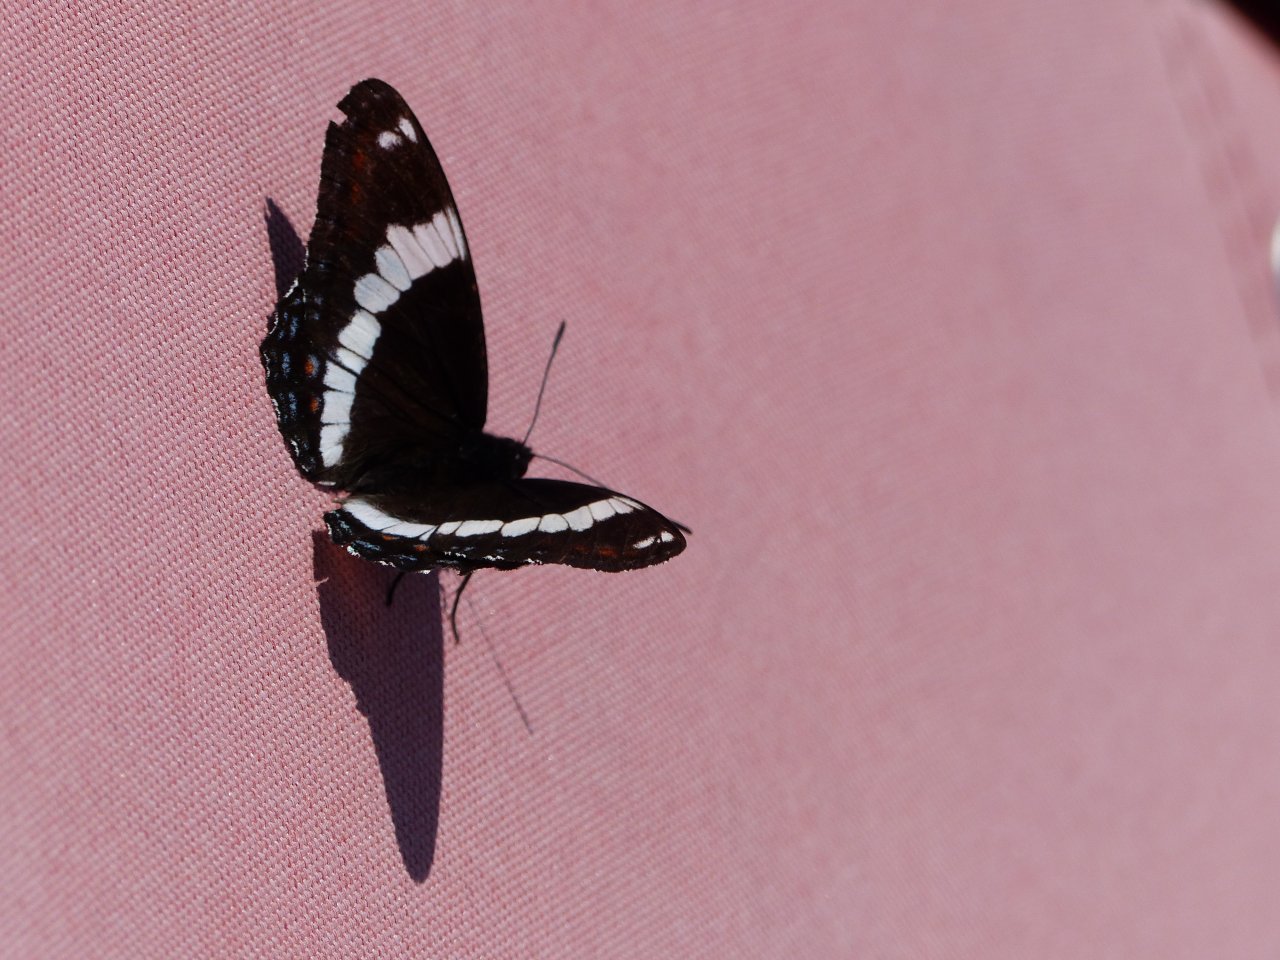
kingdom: Animalia
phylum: Arthropoda
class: Insecta
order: Lepidoptera
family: Nymphalidae
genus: Limenitis
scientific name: Limenitis arthemis
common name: Red-spotted Admiral
